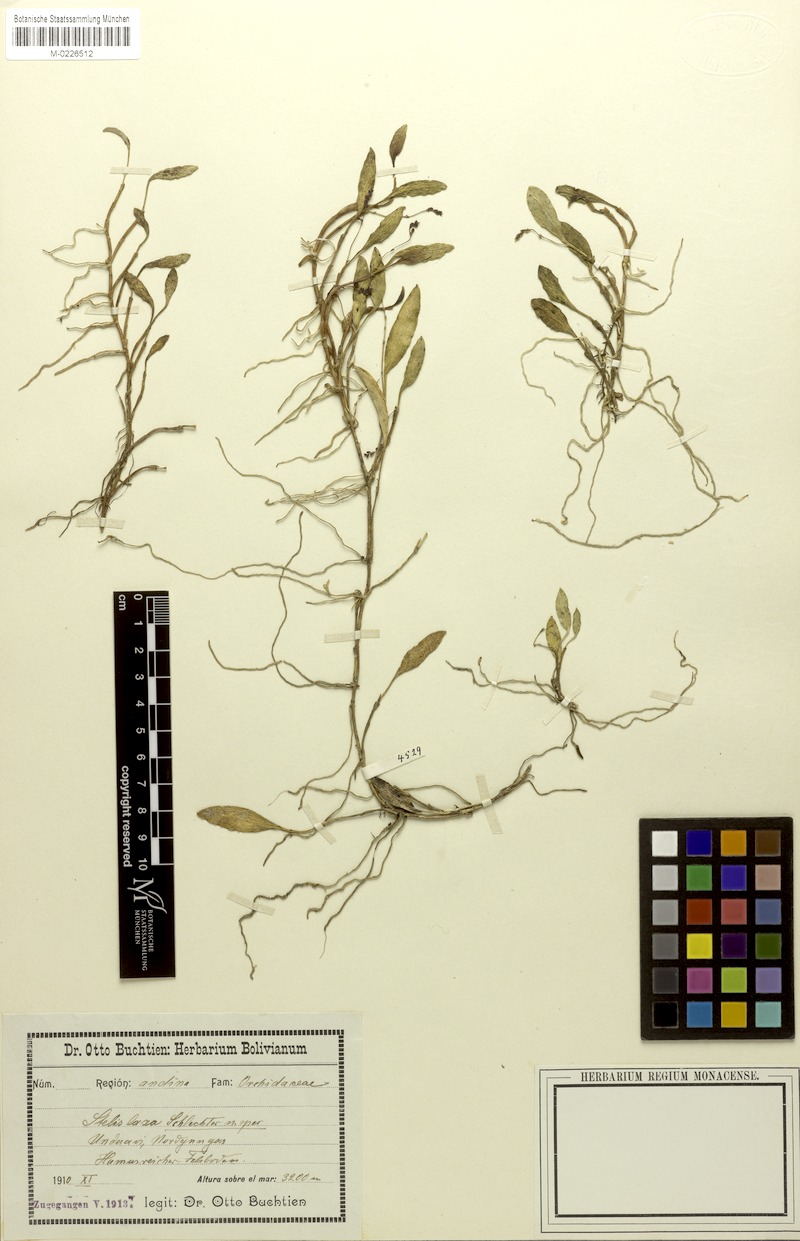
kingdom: Plantae
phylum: Tracheophyta
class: Liliopsida
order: Asparagales
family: Orchidaceae
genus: Stelis
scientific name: Stelis laxa
